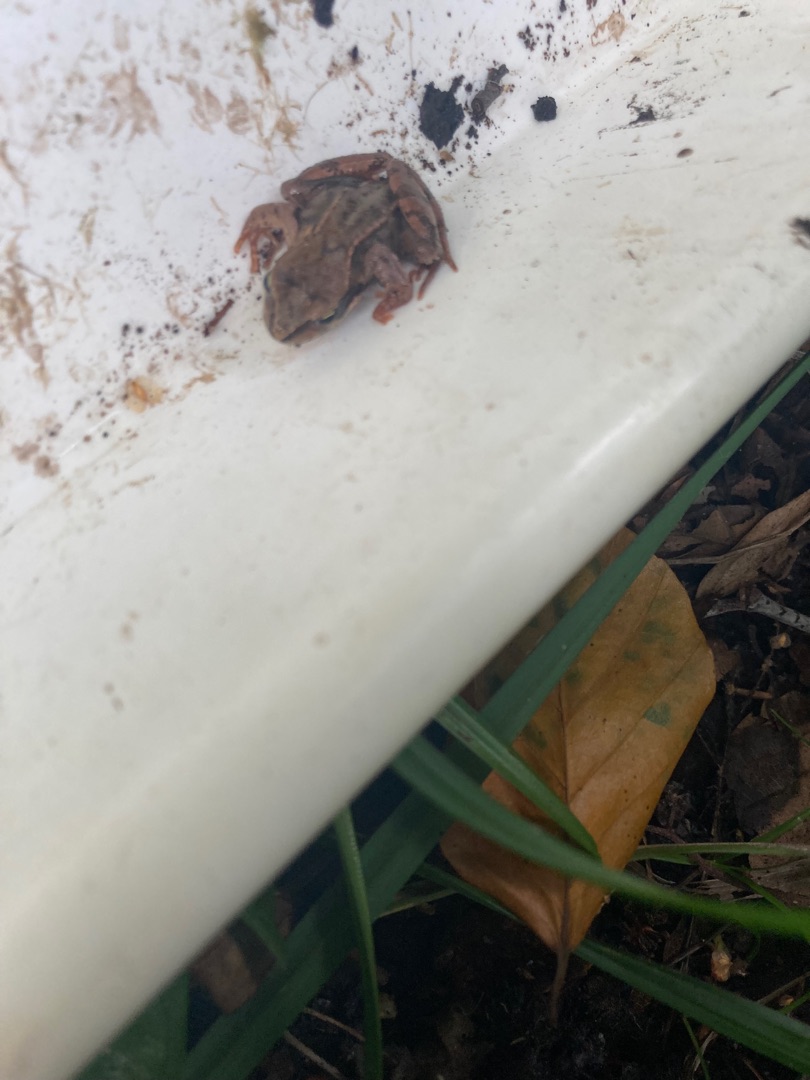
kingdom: Animalia
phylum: Chordata
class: Amphibia
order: Anura
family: Ranidae
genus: Rana
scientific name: Rana temporaria
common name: Butsnudet frø
